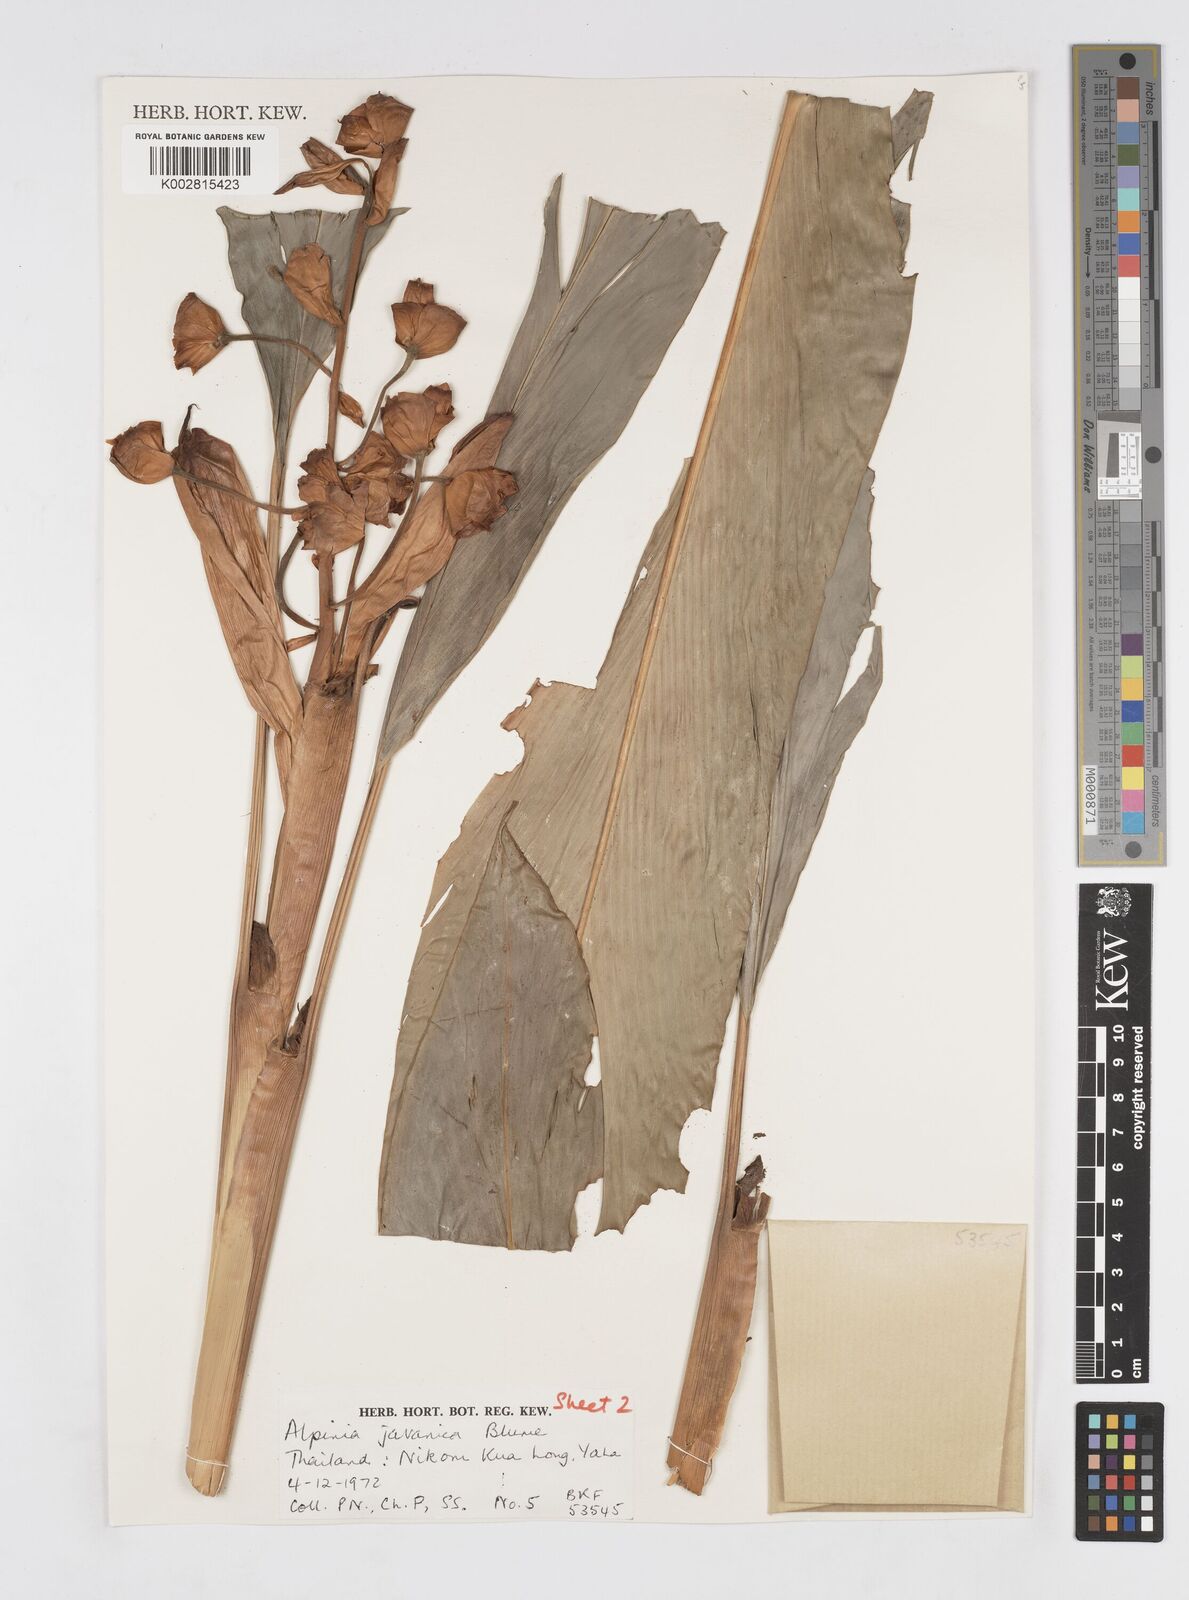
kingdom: Plantae
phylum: Tracheophyta
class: Liliopsida
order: Zingiberales
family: Zingiberaceae
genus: Alpinia
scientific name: Alpinia javanica
